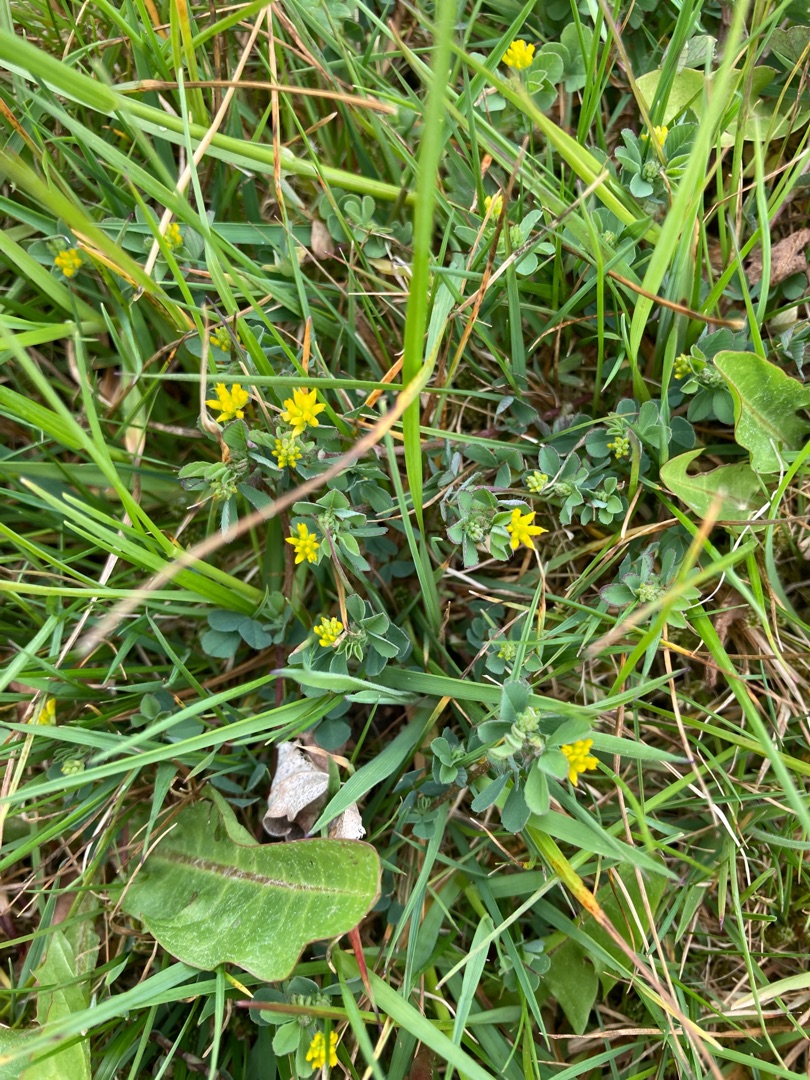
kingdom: Plantae
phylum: Tracheophyta
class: Magnoliopsida
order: Fabales
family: Fabaceae
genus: Trifolium
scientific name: Trifolium dubium
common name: Fin kløver
